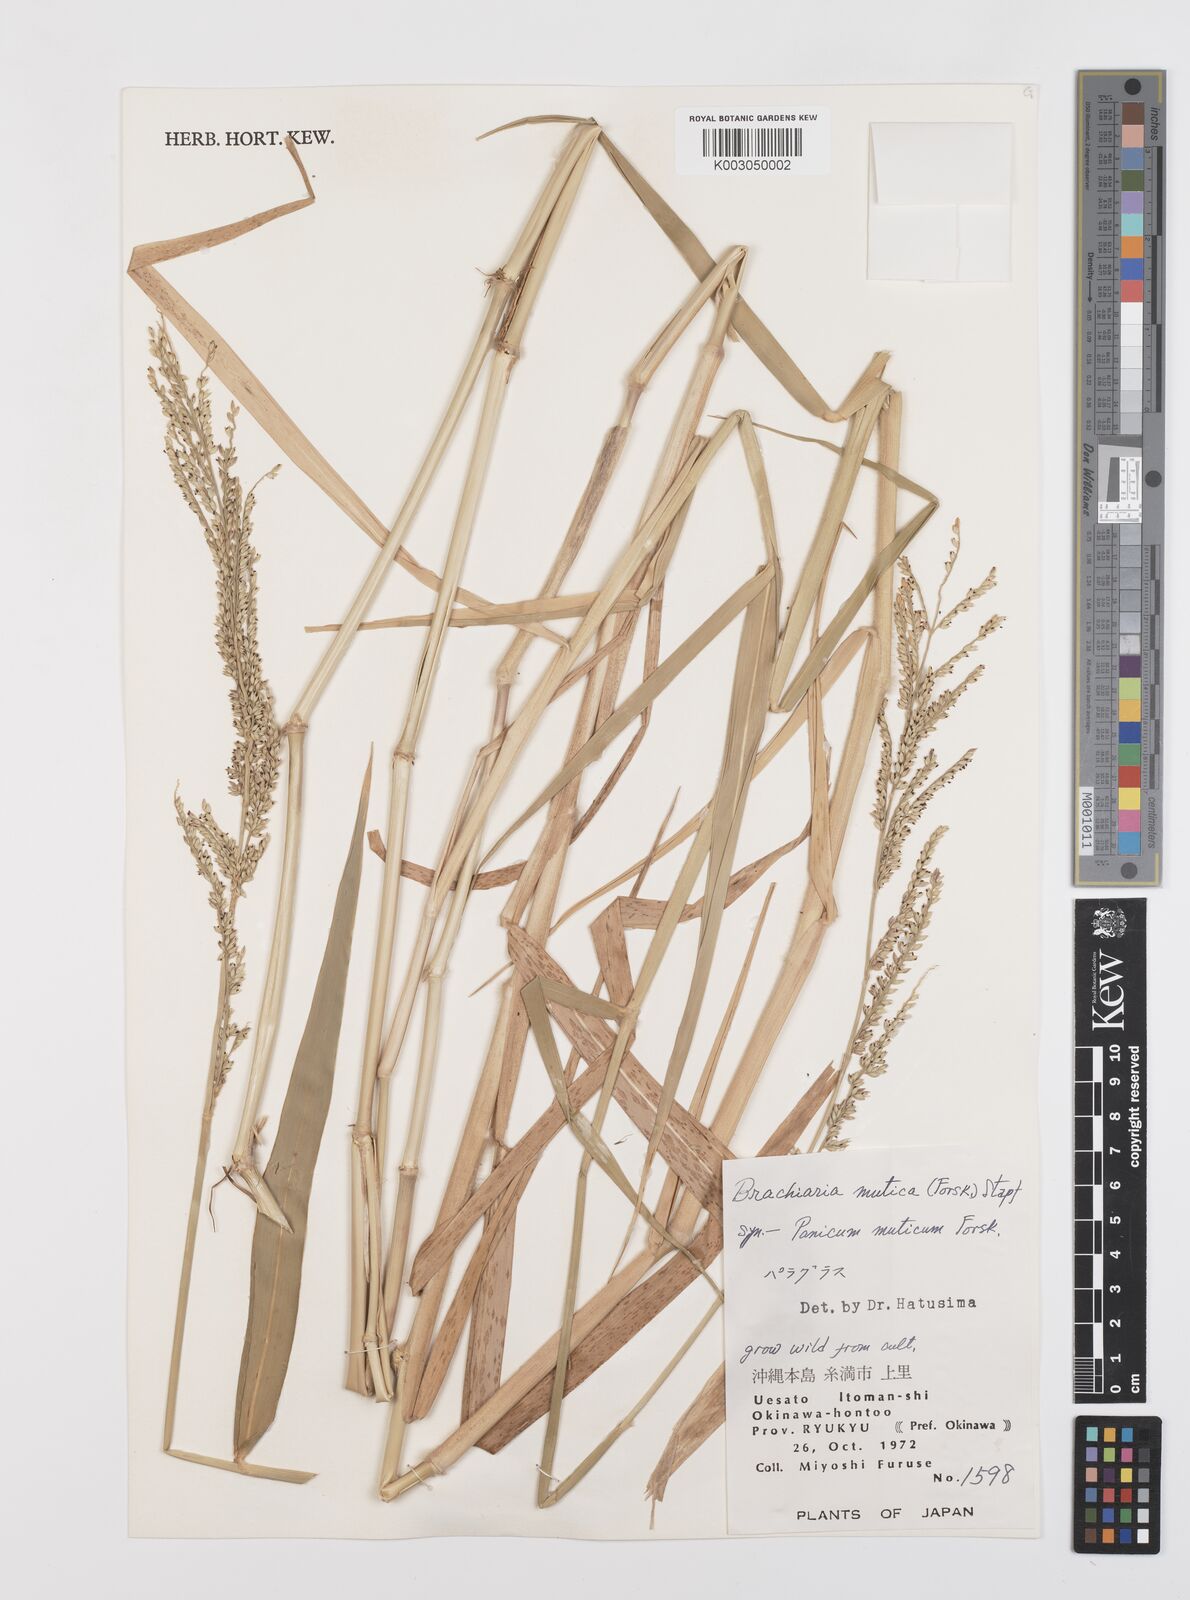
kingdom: Plantae
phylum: Tracheophyta
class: Liliopsida
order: Poales
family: Poaceae
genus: Urochloa
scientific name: Urochloa mutica
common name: Para grass
